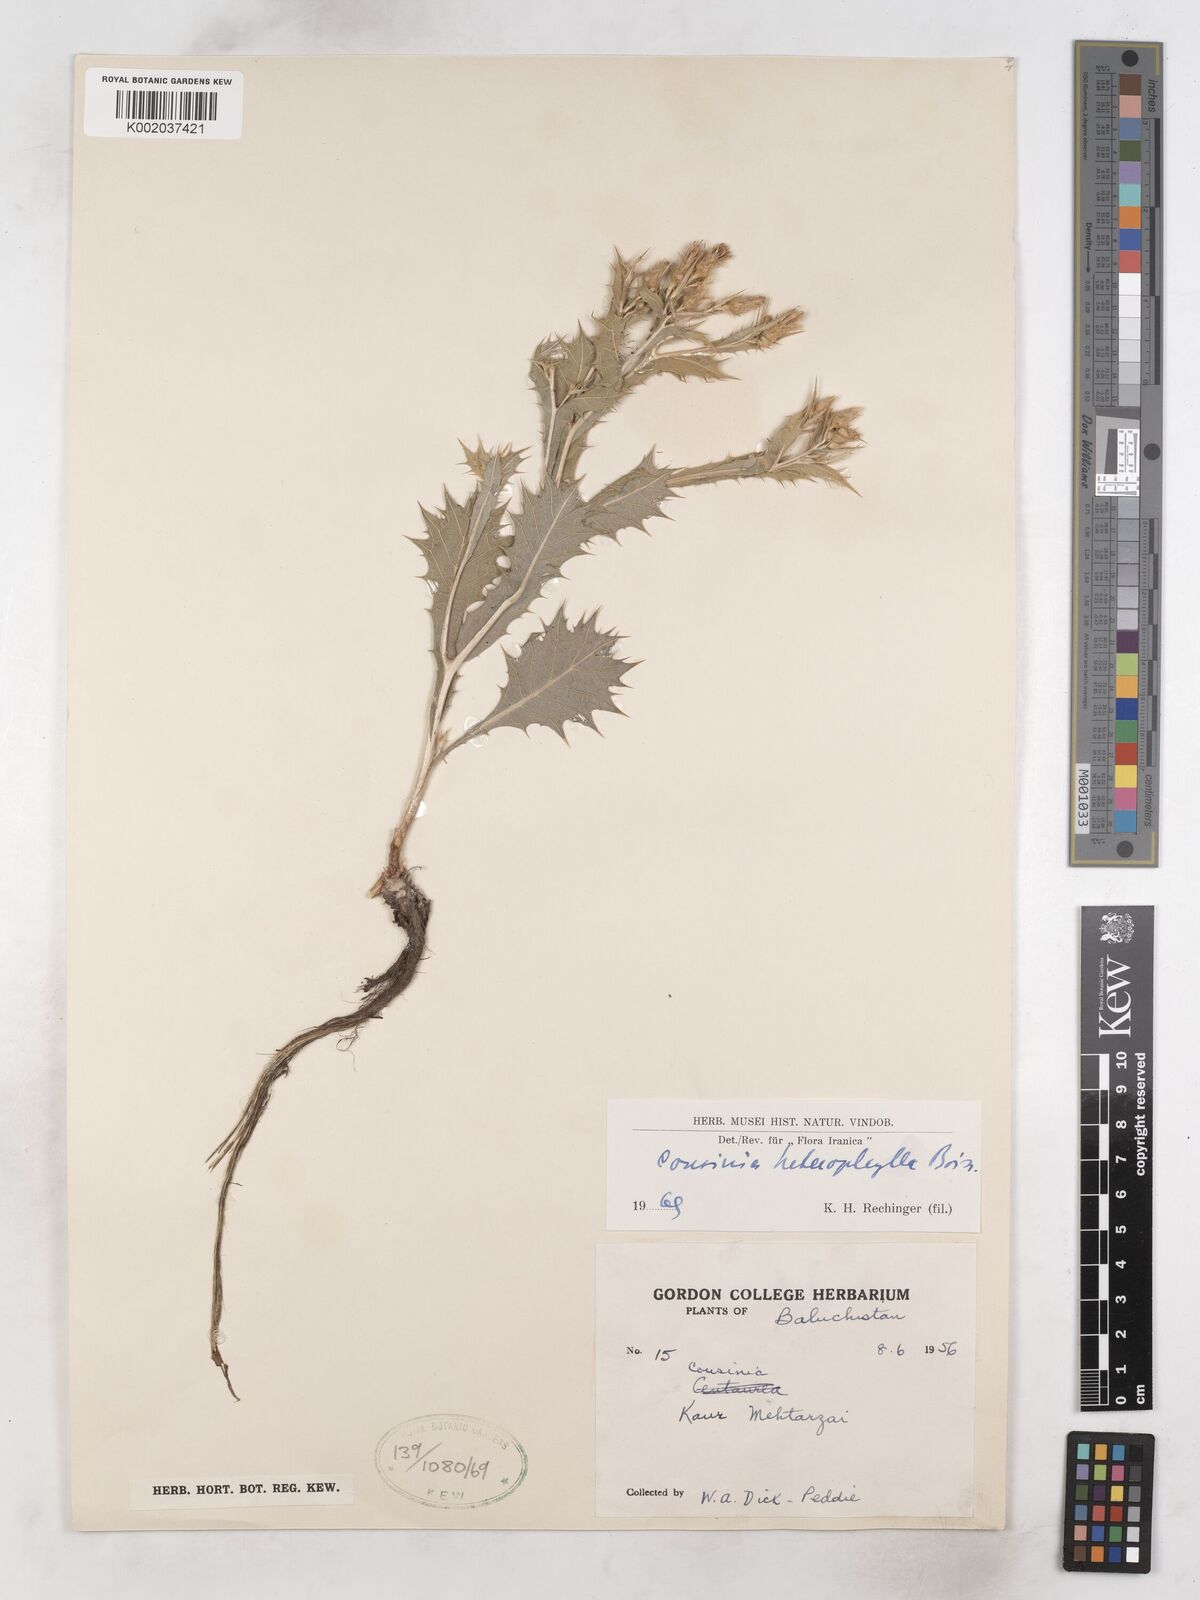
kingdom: Plantae
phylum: Tracheophyta
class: Magnoliopsida
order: Asterales
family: Asteraceae
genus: Cousinia
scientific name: Cousinia heterophylla
